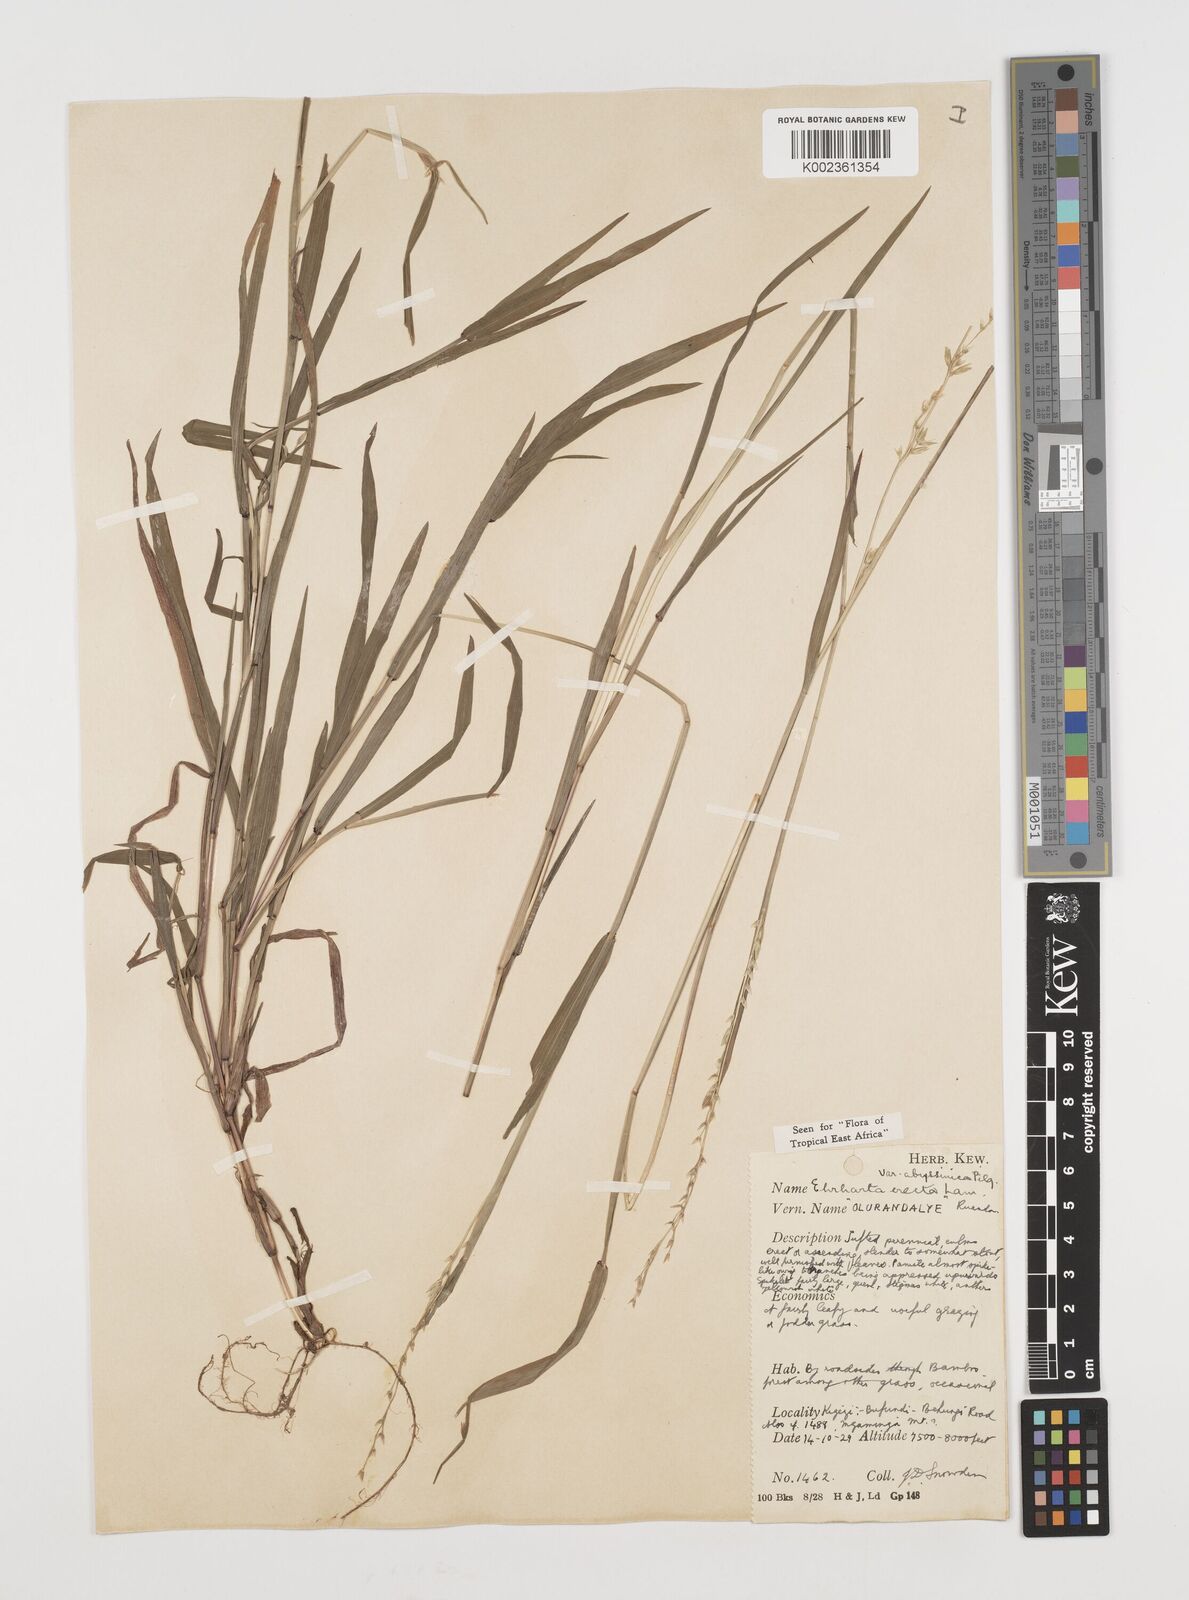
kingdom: Plantae
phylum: Tracheophyta
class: Liliopsida
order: Poales
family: Poaceae
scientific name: Poaceae
